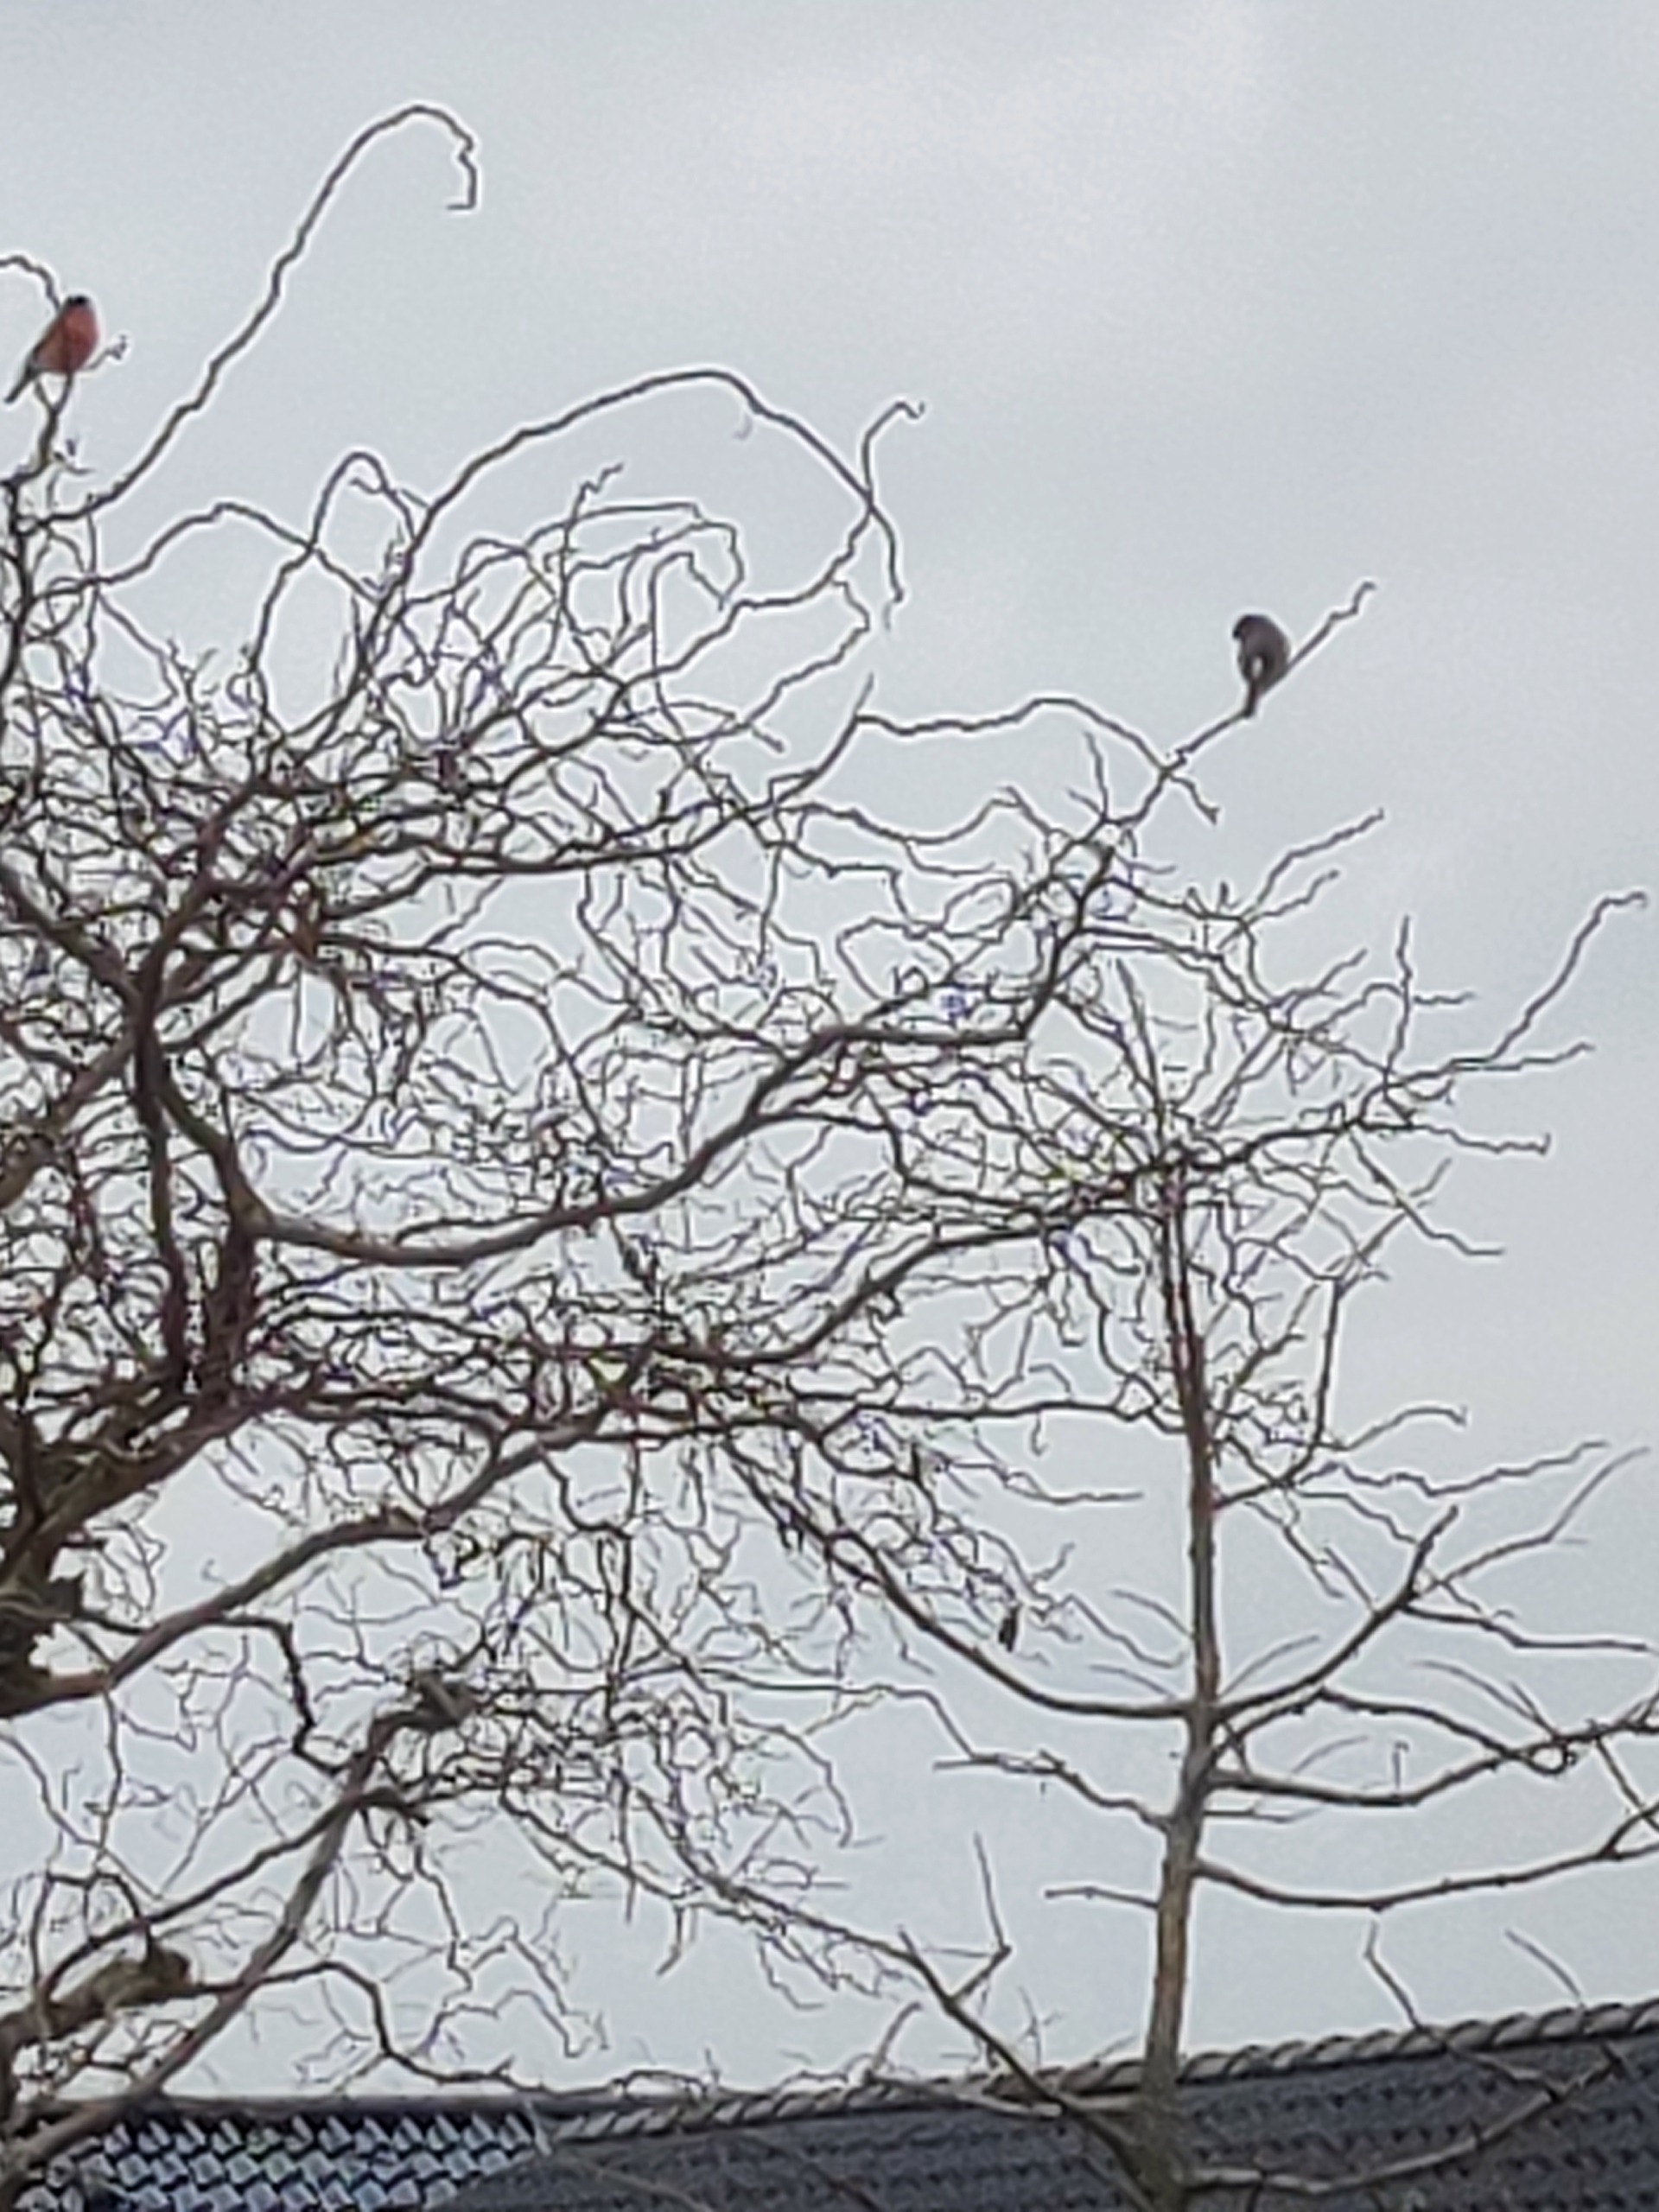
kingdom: Animalia
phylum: Chordata
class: Aves
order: Passeriformes
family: Fringillidae
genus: Pyrrhula
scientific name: Pyrrhula pyrrhula
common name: Dompap
